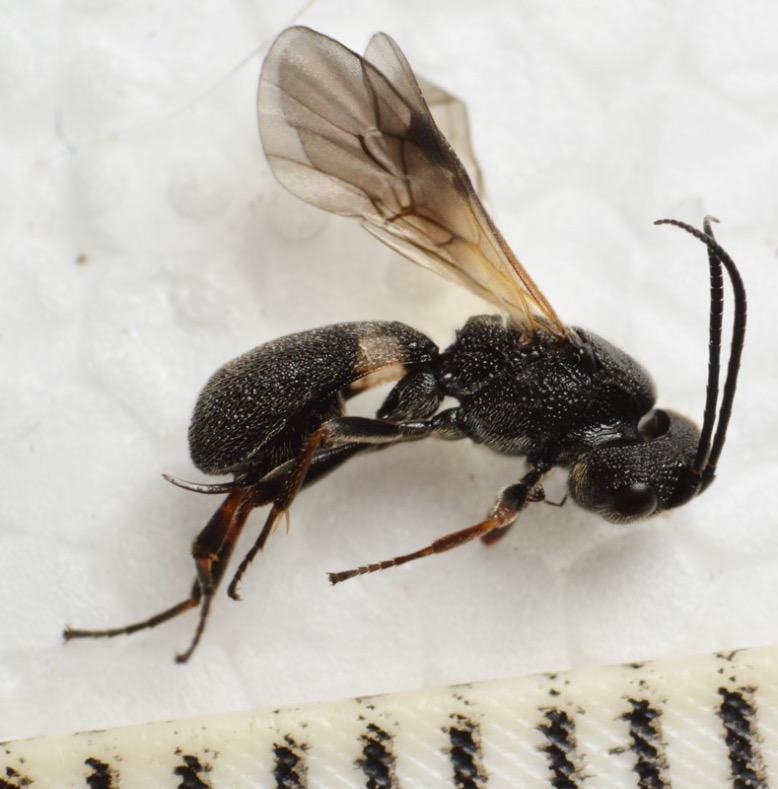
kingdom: Animalia
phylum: Arthropoda
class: Insecta
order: Hymenoptera
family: Braconidae
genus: Chelonus
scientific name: Chelonus scabrator
